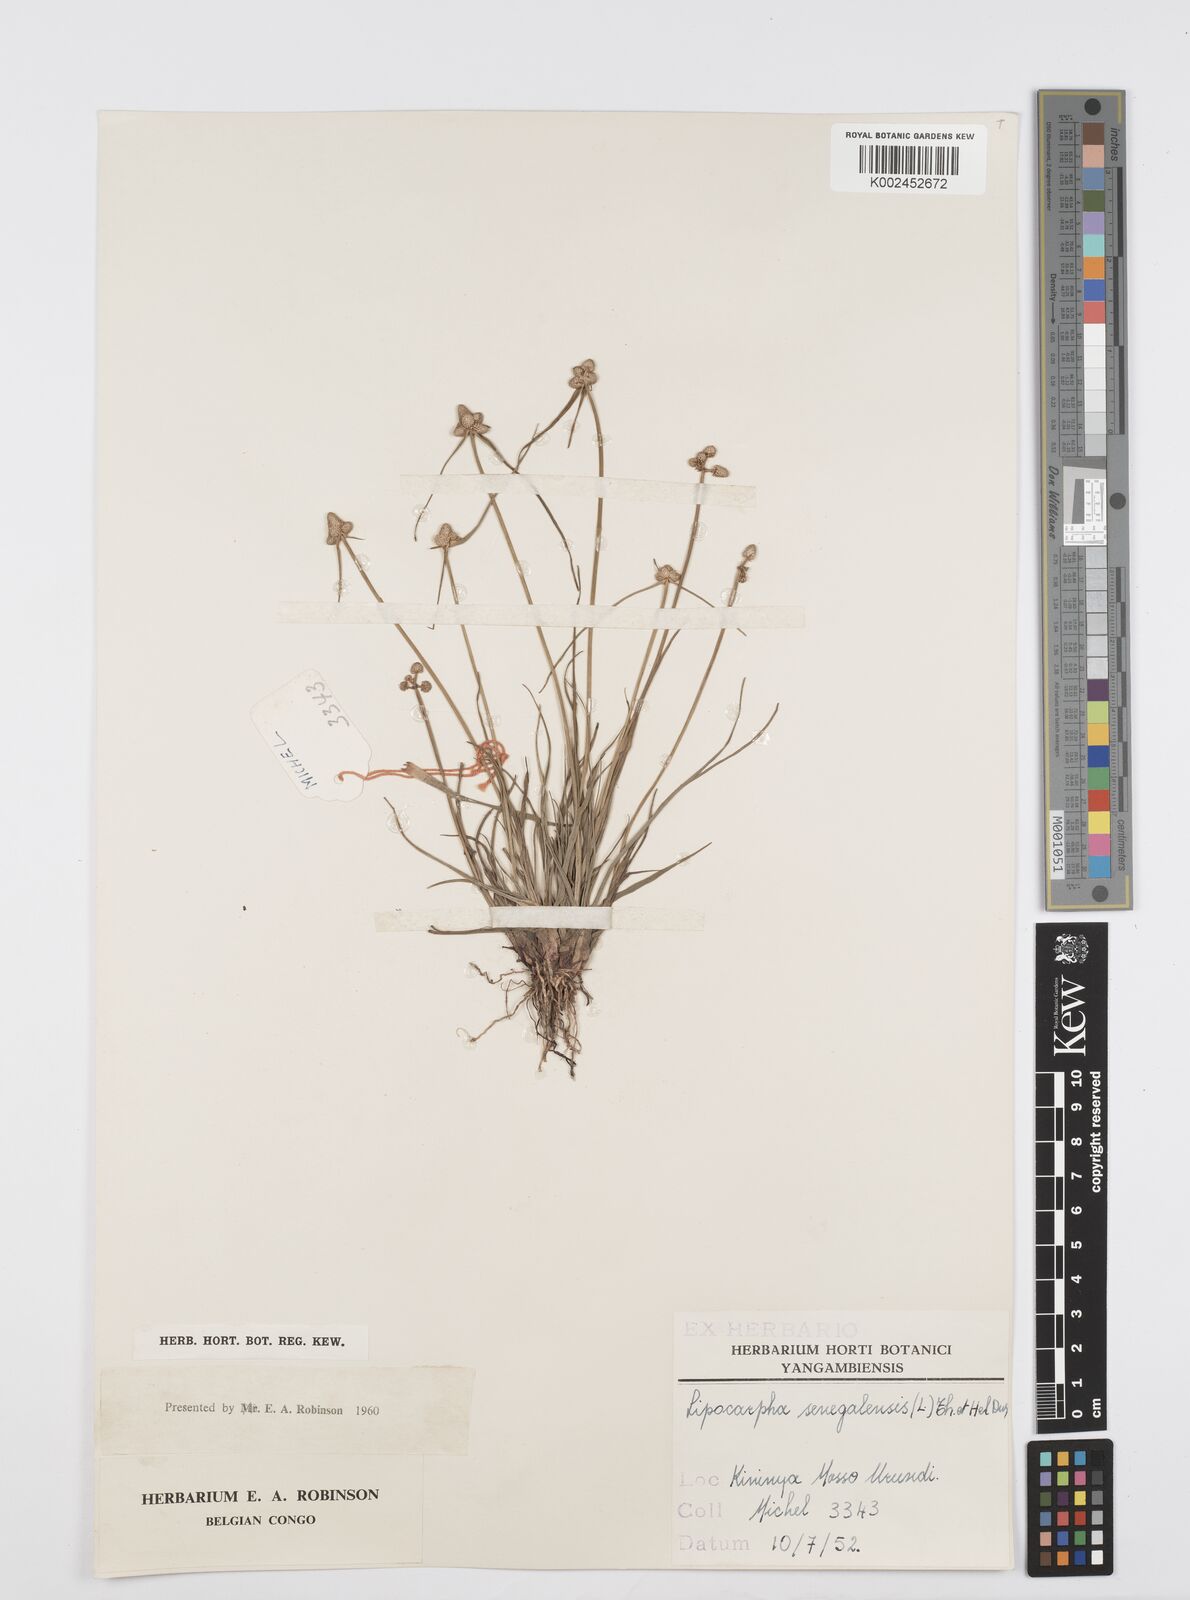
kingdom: Plantae
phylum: Tracheophyta
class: Liliopsida
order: Poales
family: Cyperaceae
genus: Cyperus
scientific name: Cyperus albescens
